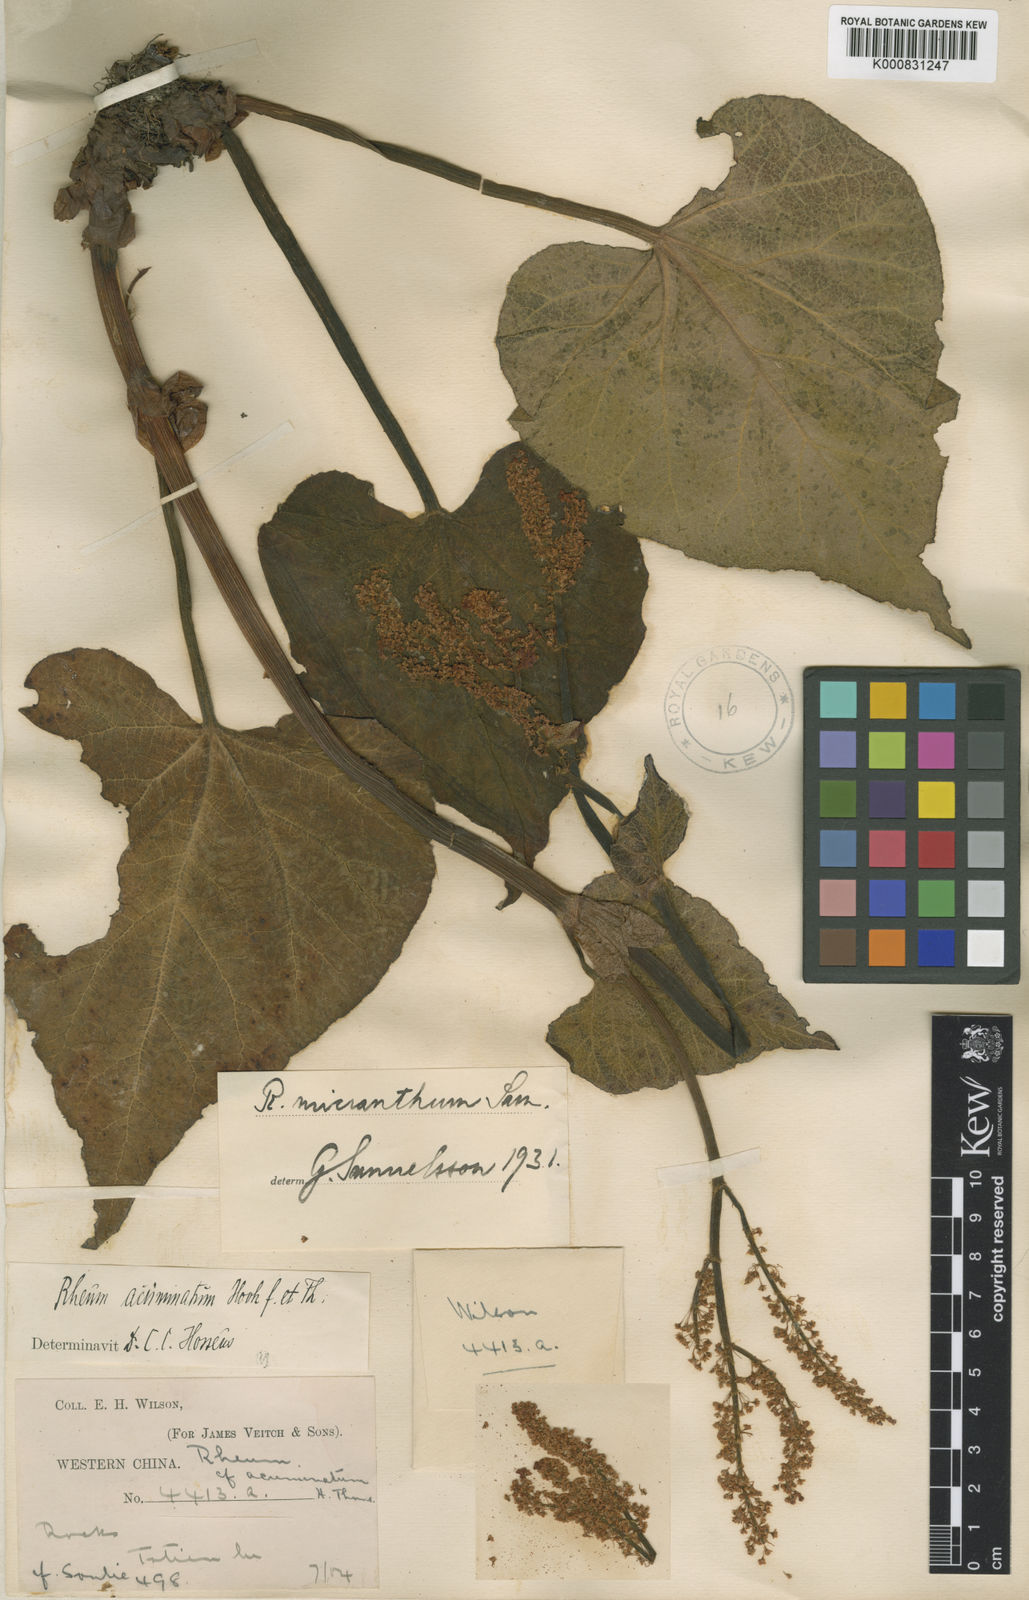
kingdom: Plantae
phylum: Tracheophyta
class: Magnoliopsida
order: Caryophyllales
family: Polygonaceae
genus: Rheum
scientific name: Rheum kialense
